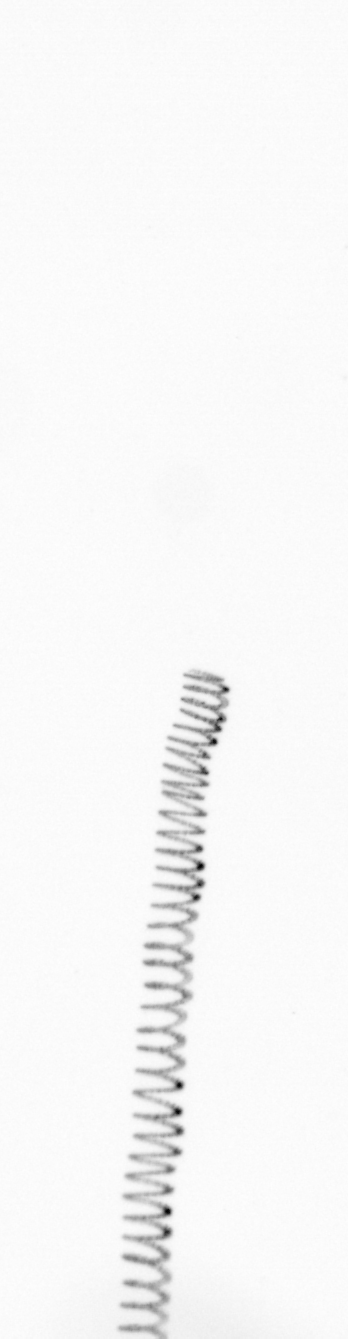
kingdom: Chromista
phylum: Ochrophyta
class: Bacillariophyceae
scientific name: Bacillariophyceae
